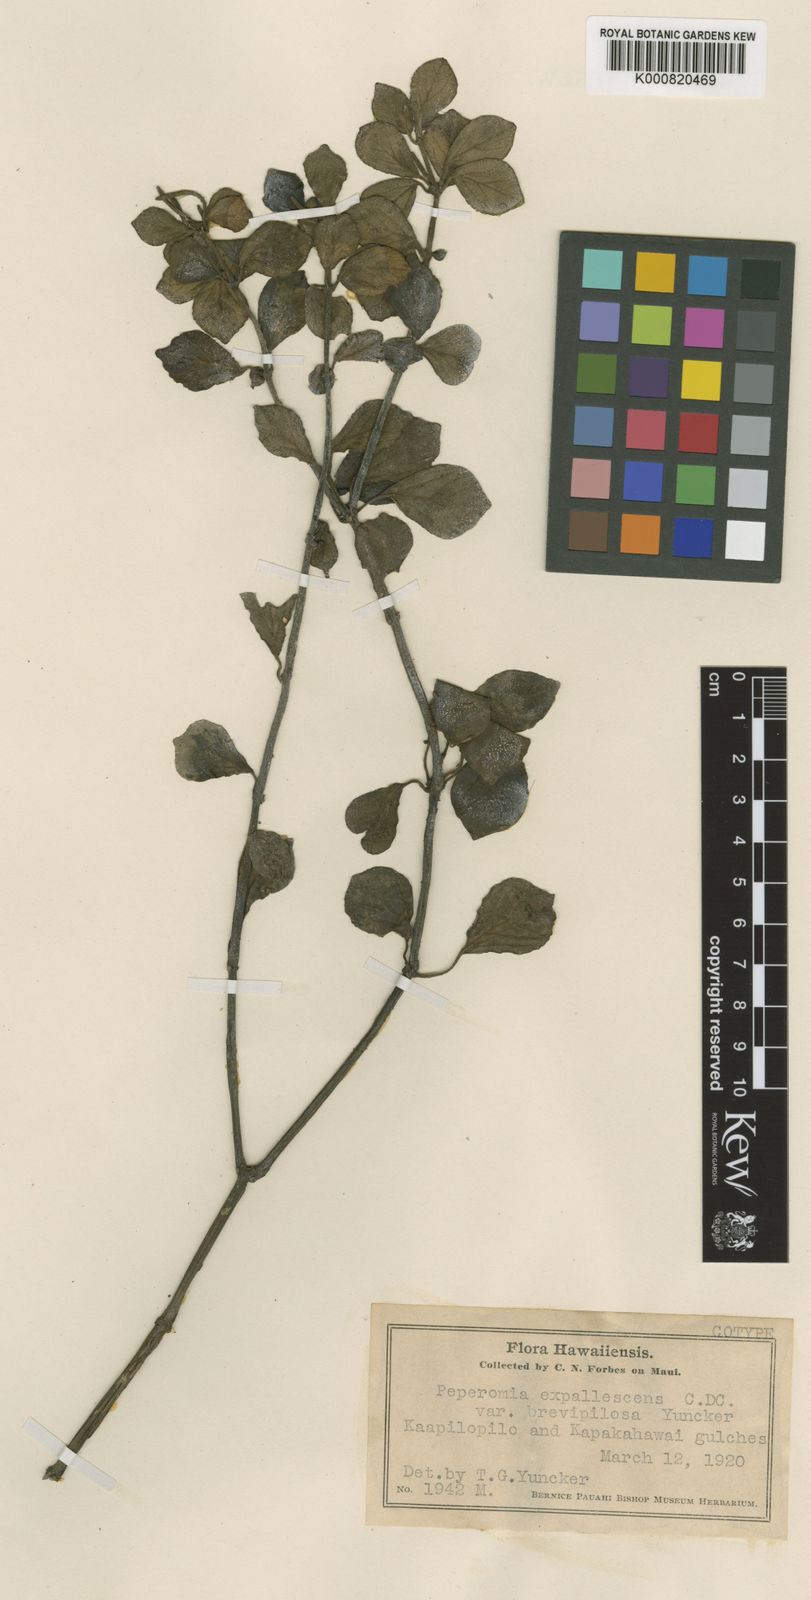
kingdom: Plantae
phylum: Tracheophyta
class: Magnoliopsida
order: Piperales
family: Piperaceae
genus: Peperomia
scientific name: Peperomia expallescens
